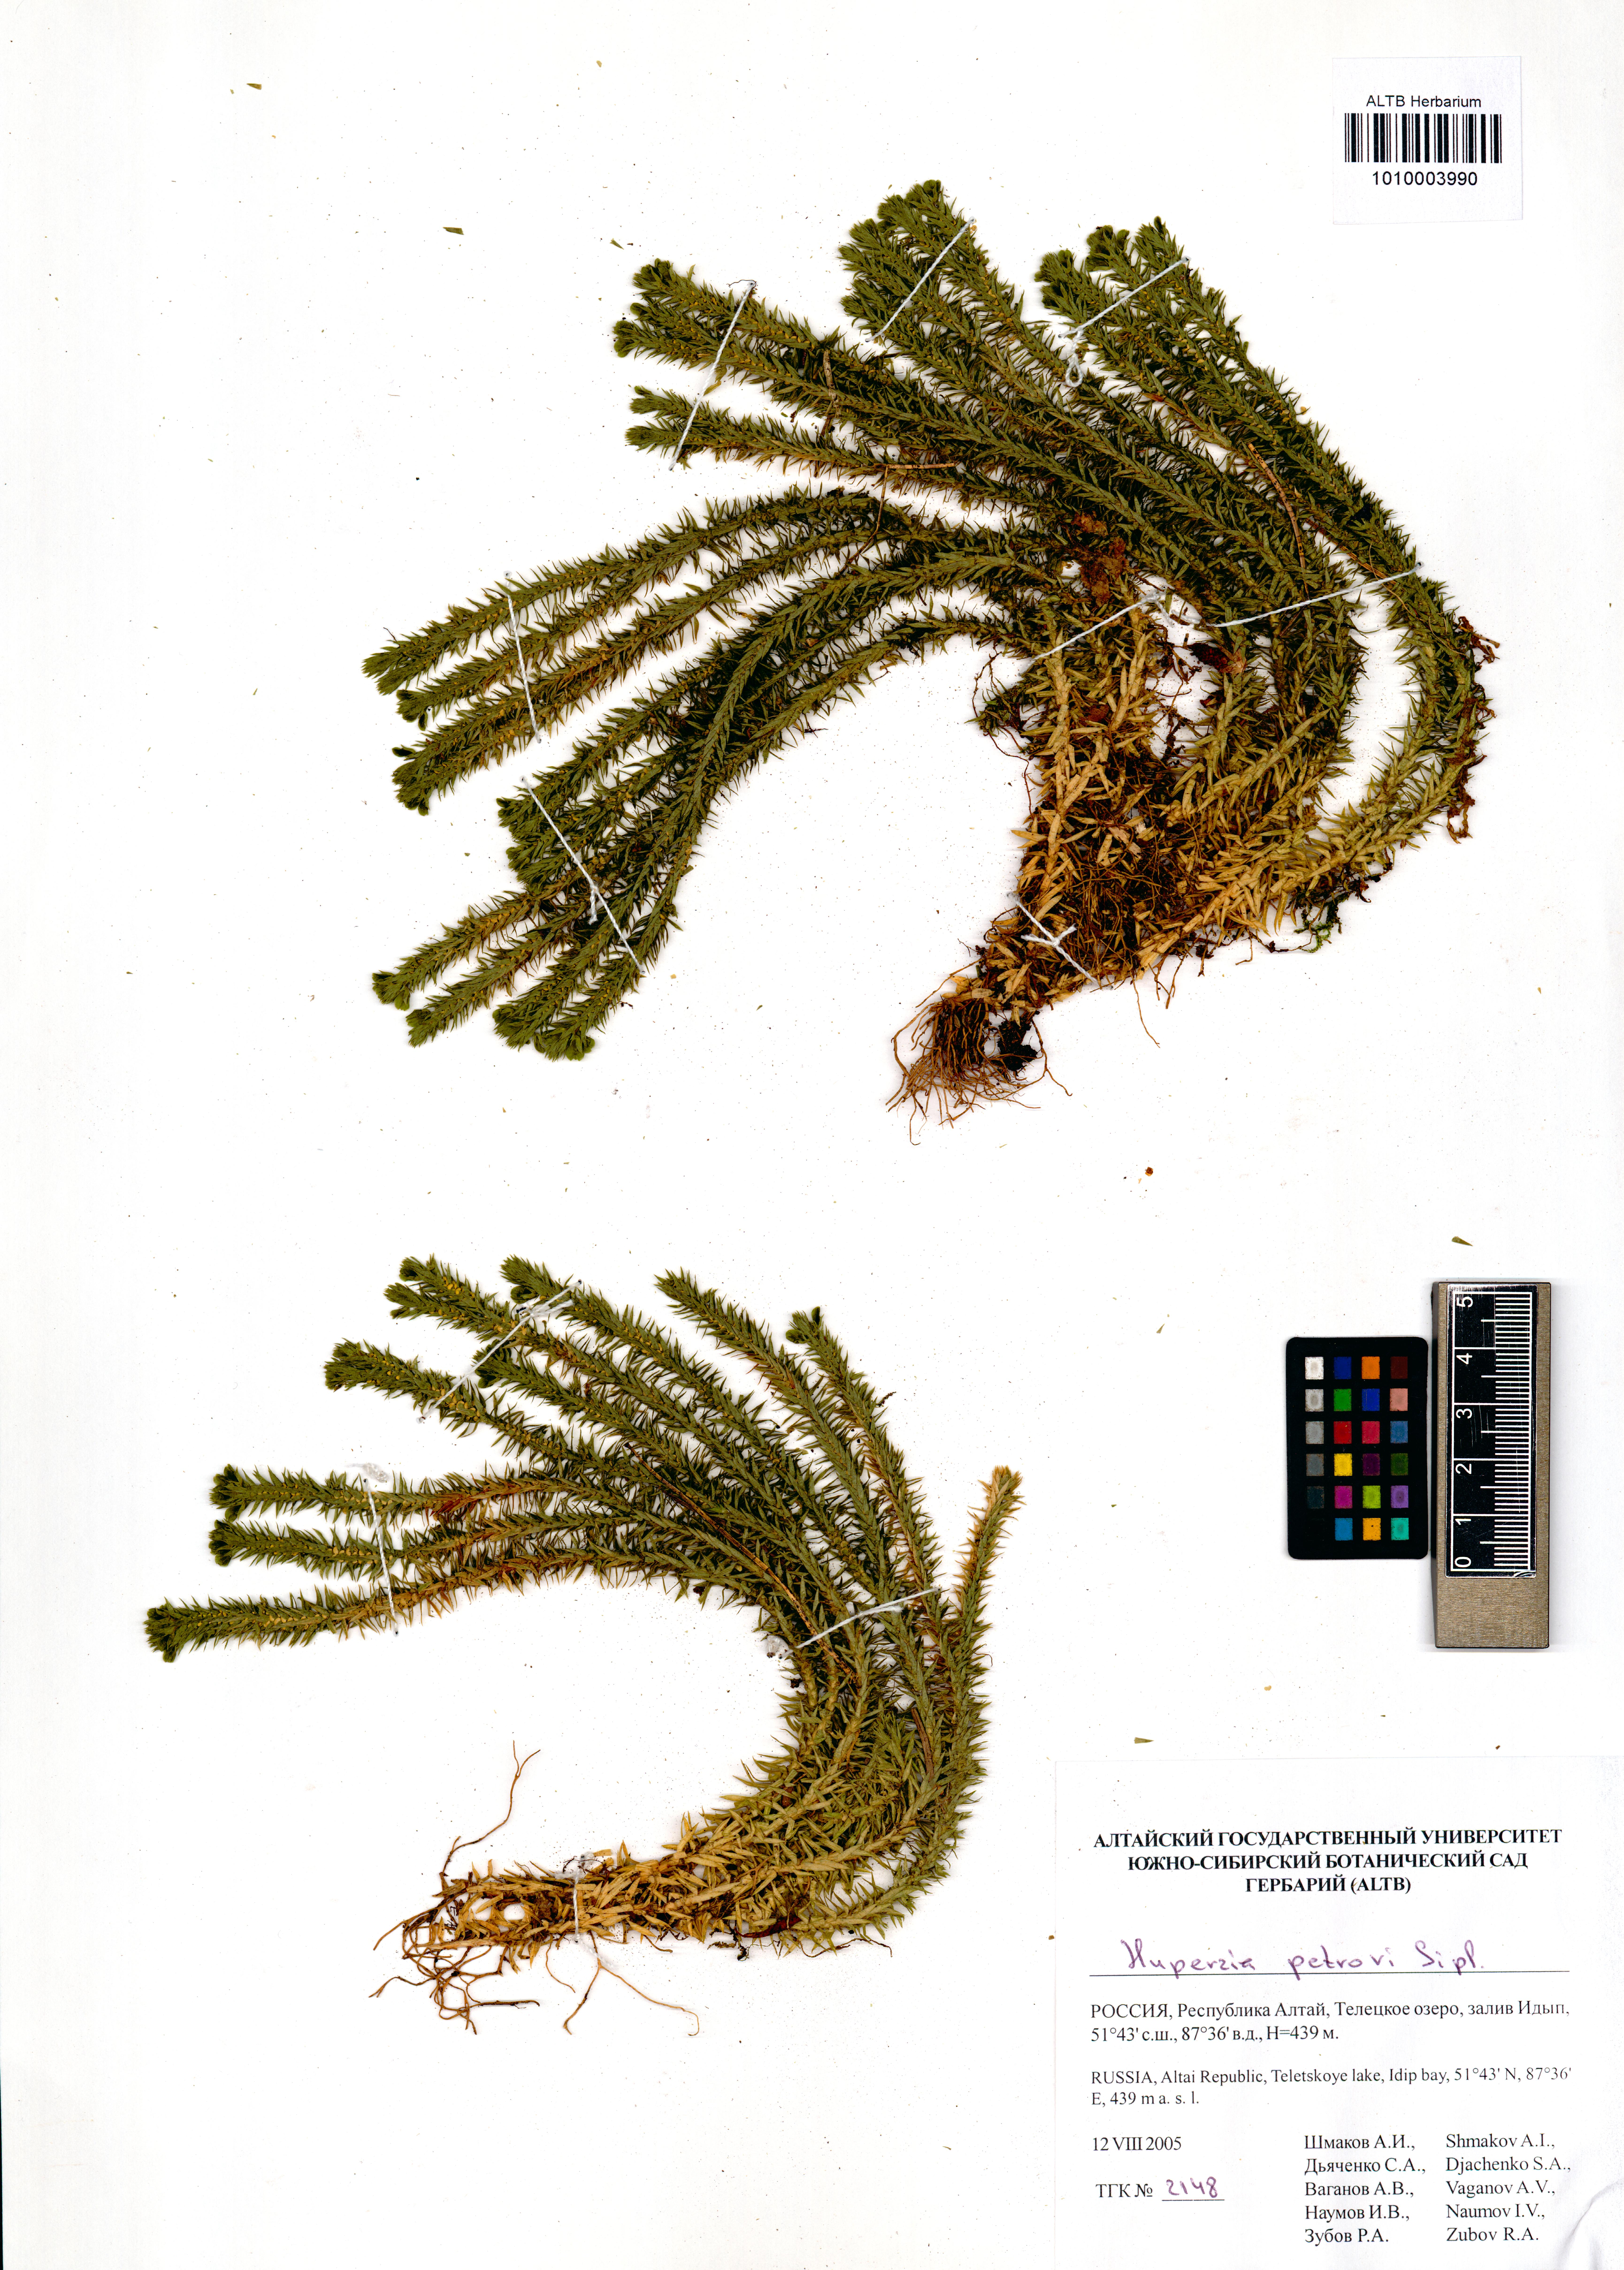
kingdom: Plantae
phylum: Tracheophyta
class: Lycopodiopsida
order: Lycopodiales
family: Lycopodiaceae
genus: Huperzia
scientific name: Huperzia selago
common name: Northern firmoss
